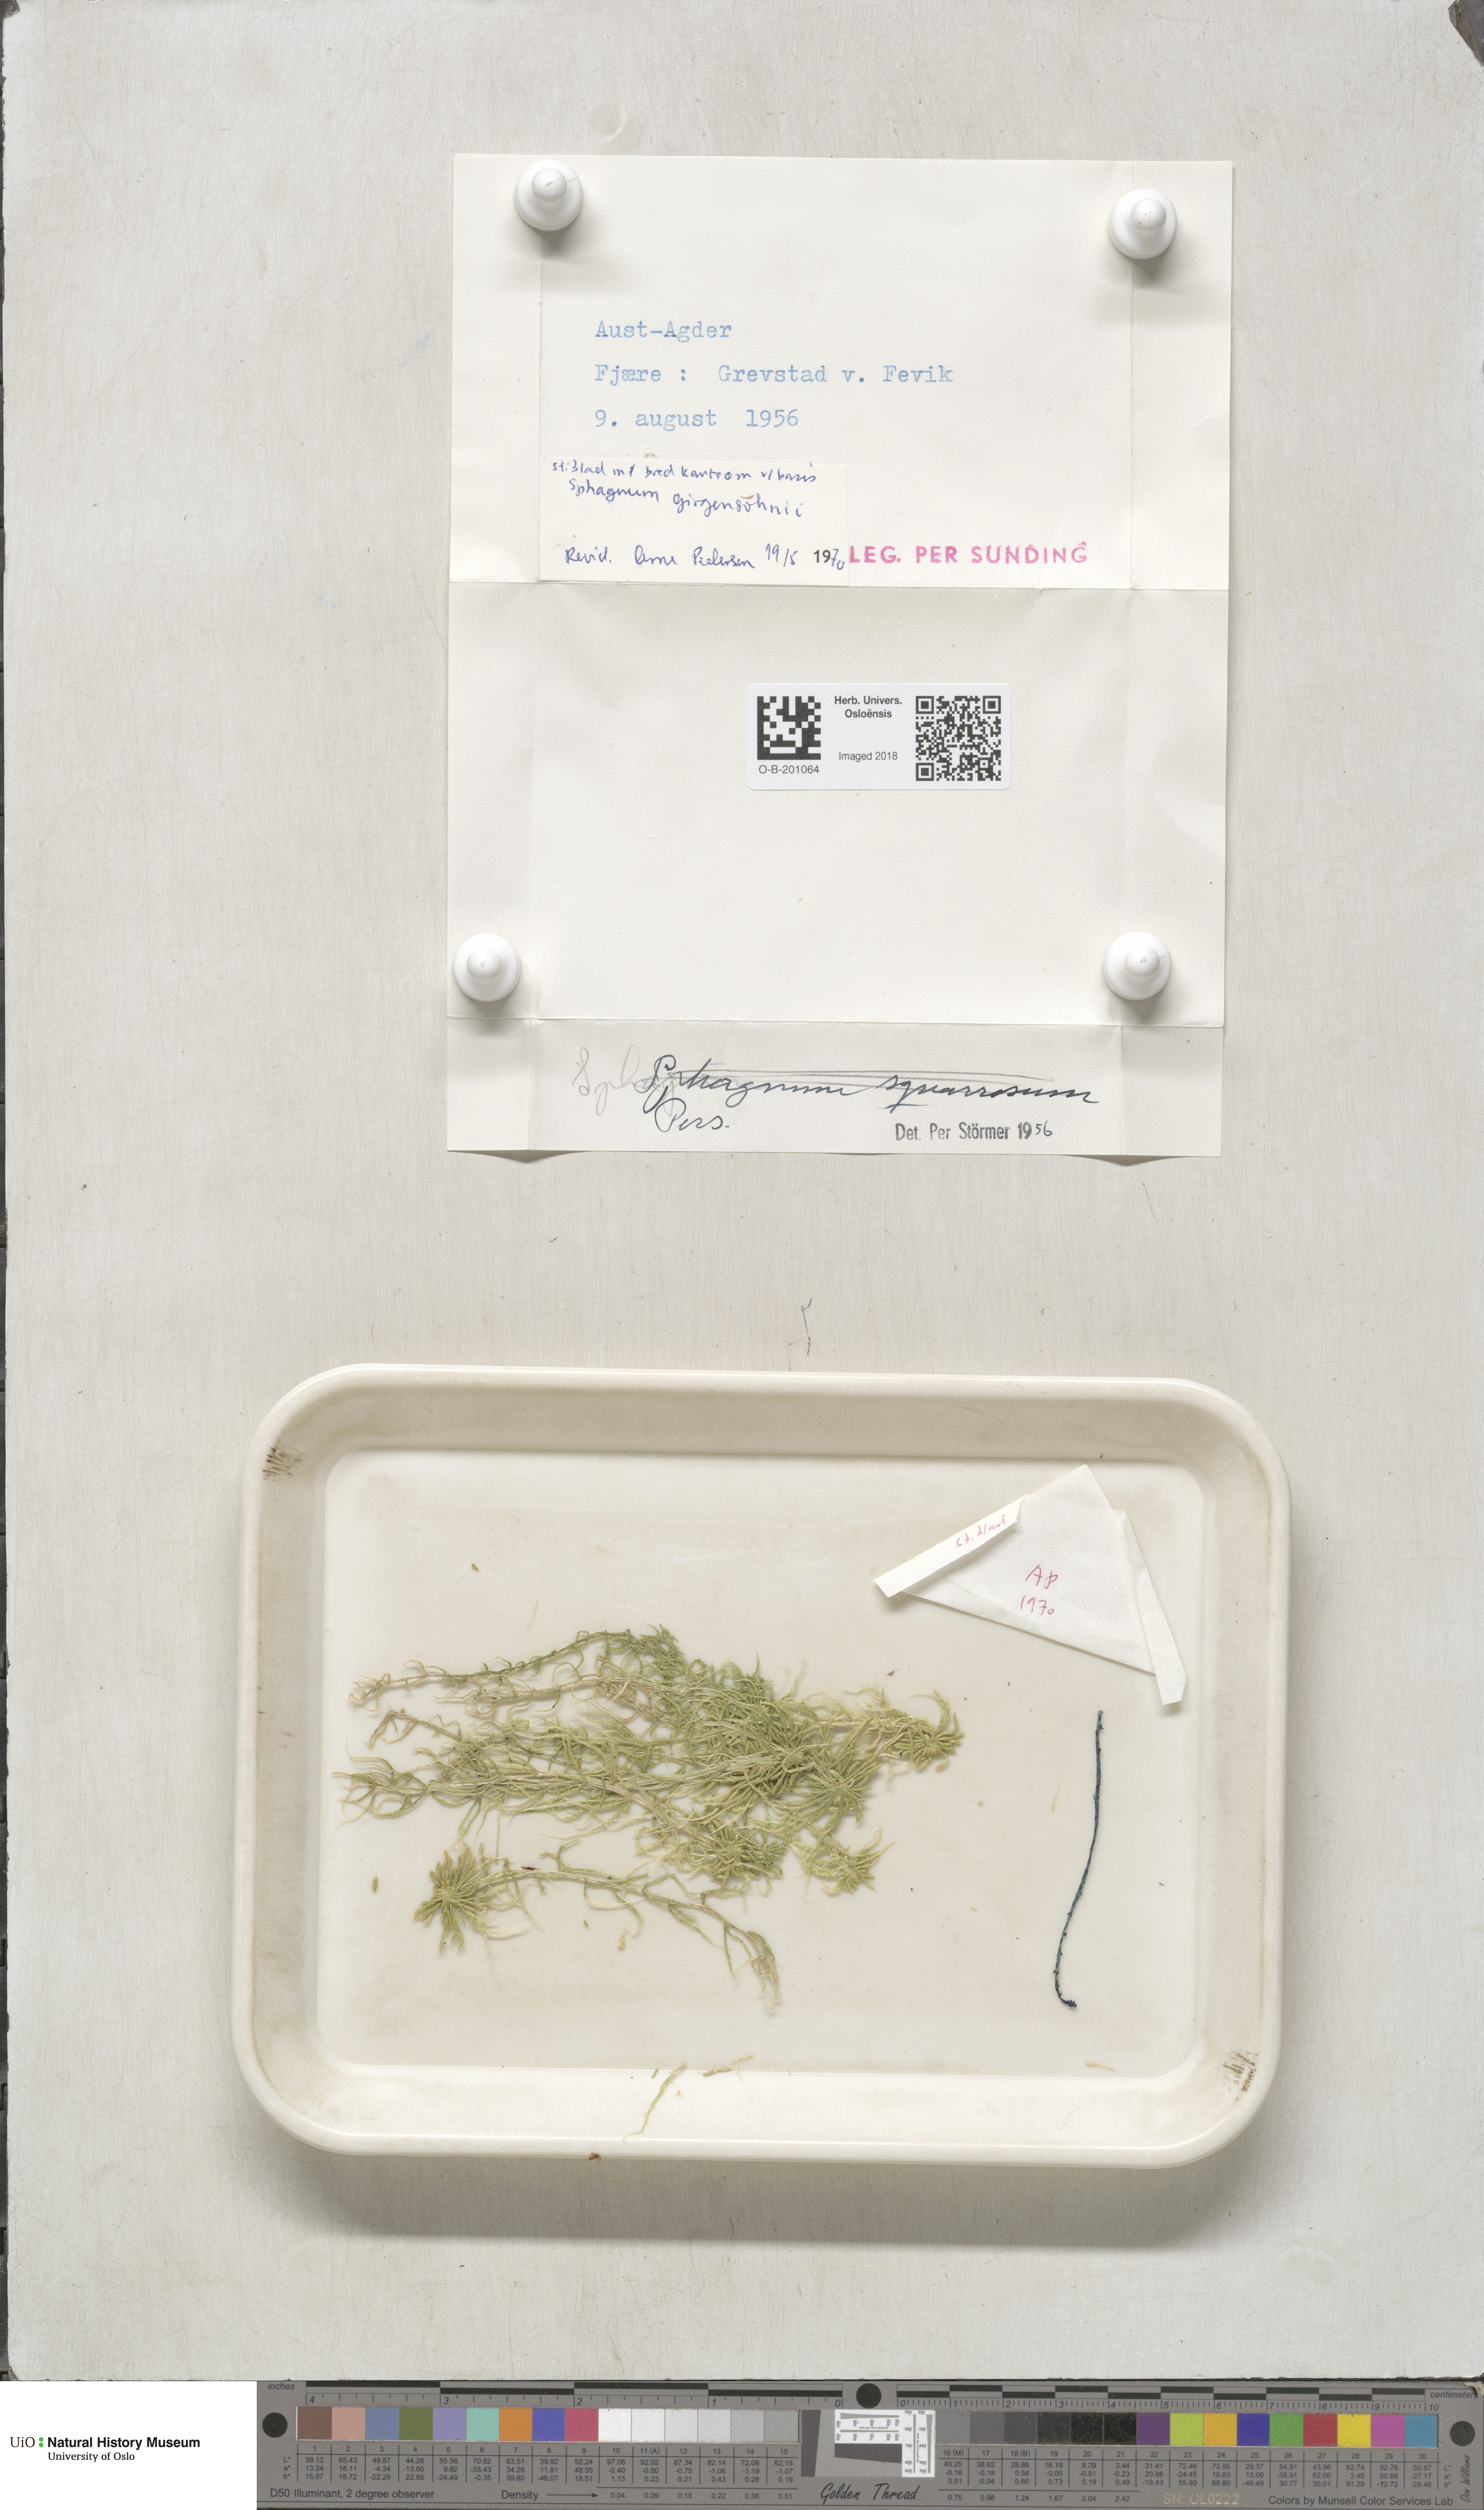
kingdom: Plantae
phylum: Bryophyta
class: Sphagnopsida
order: Sphagnales
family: Sphagnaceae
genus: Sphagnum
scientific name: Sphagnum girgensohnii
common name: Girgensohn's peat moss
